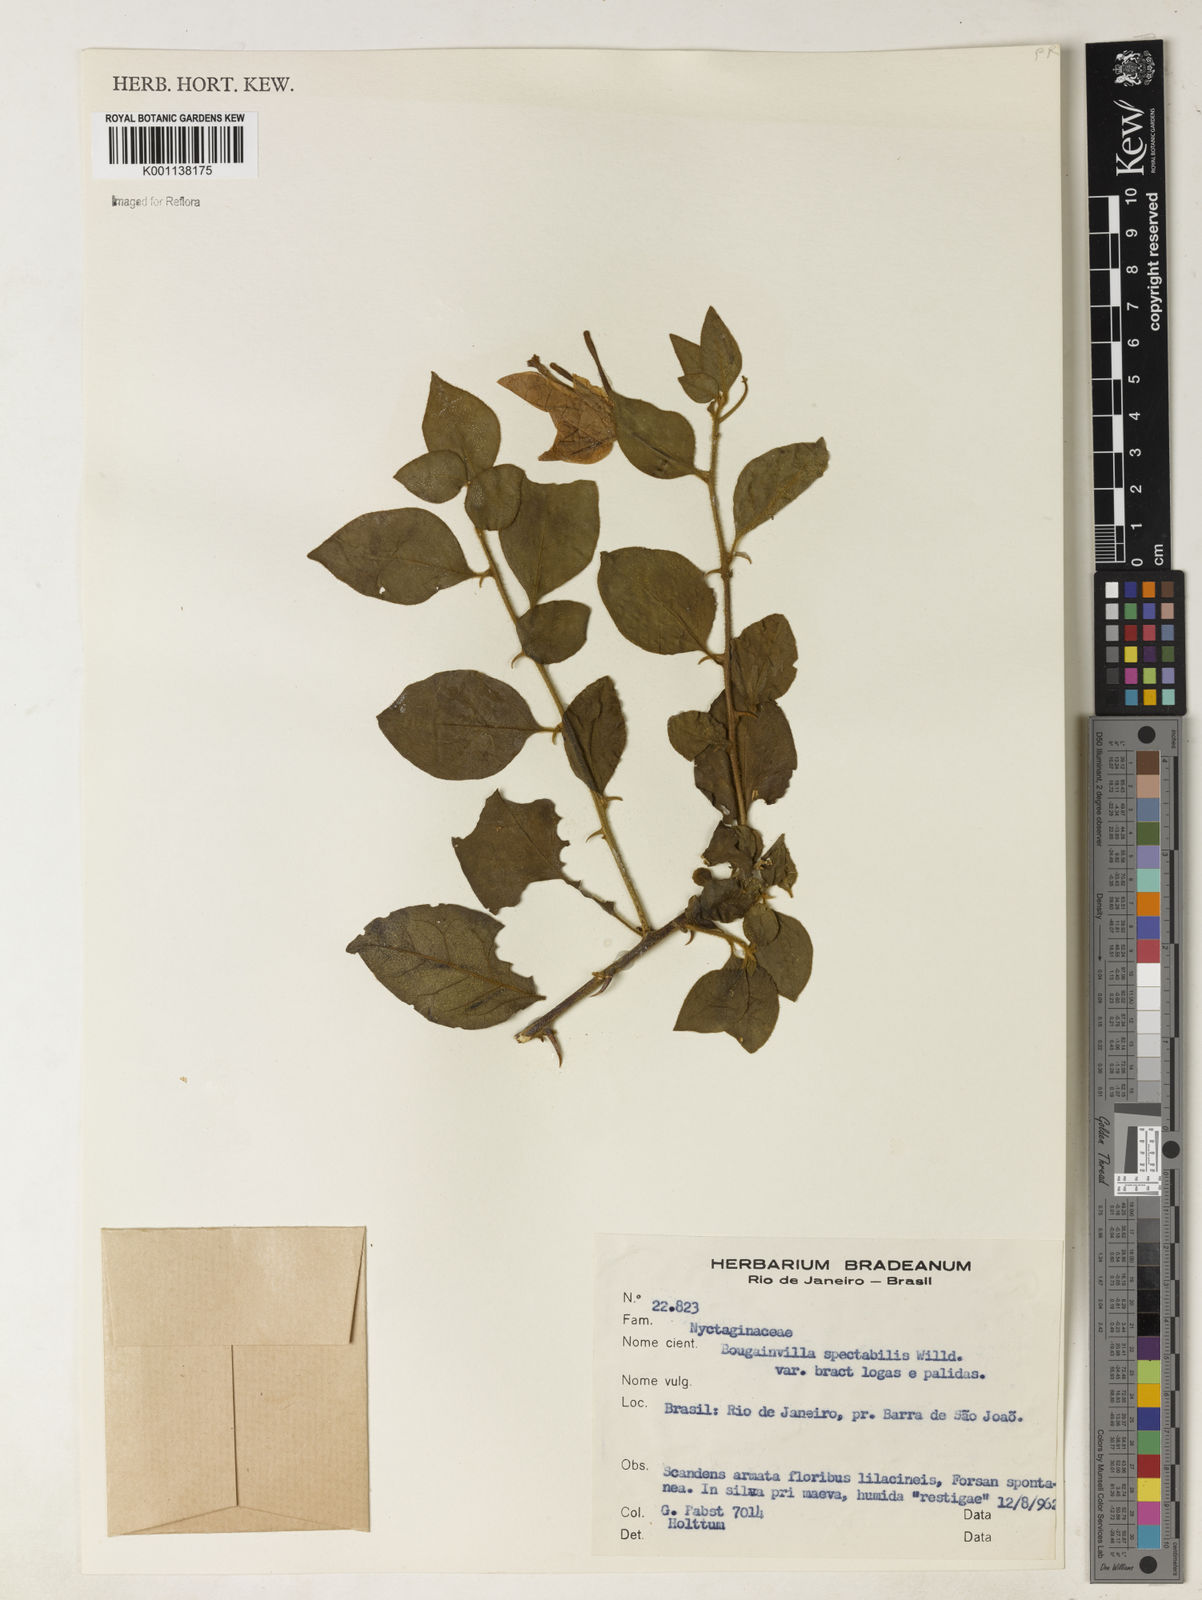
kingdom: Plantae
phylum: Tracheophyta
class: Magnoliopsida
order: Caryophyllales
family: Nyctaginaceae
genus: Bougainvillea
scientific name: Bougainvillea spectabilis
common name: Great bougainvillea
